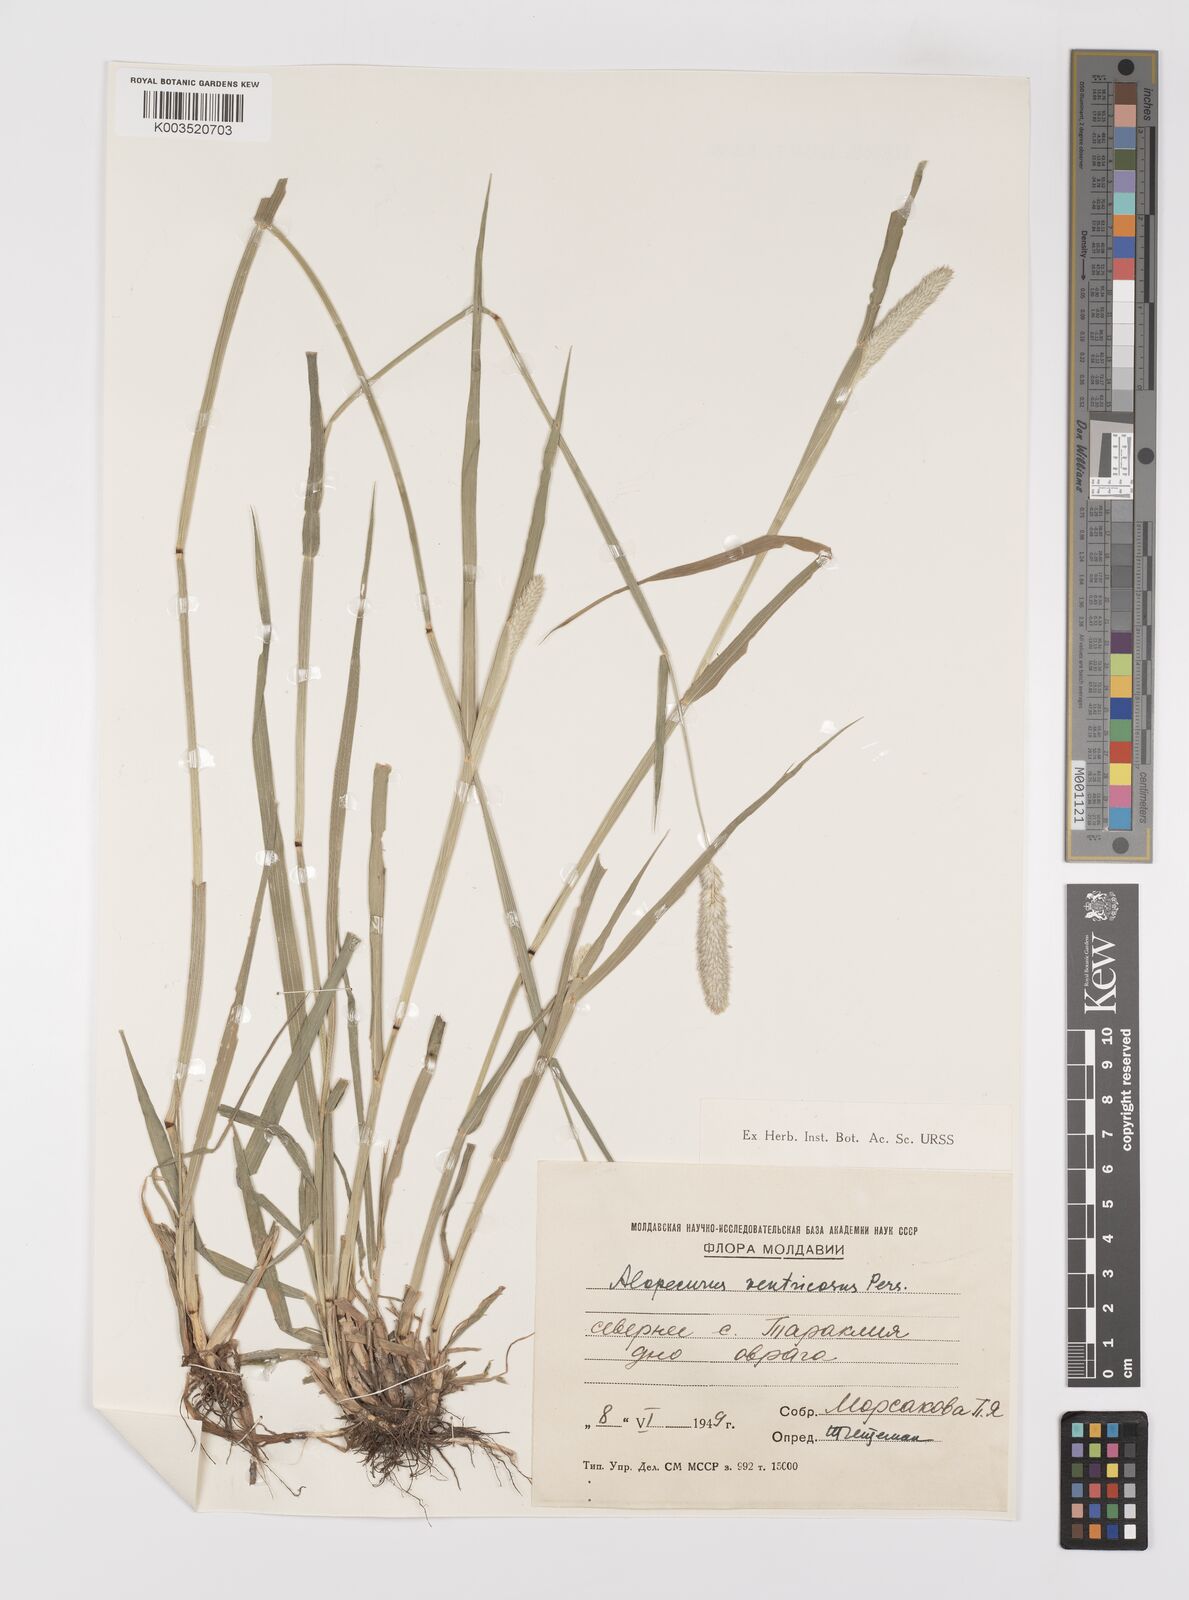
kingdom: Plantae
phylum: Tracheophyta
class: Liliopsida
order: Poales
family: Poaceae
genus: Alopecurus
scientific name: Alopecurus arundinaceus
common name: Creeping meadow foxtail
